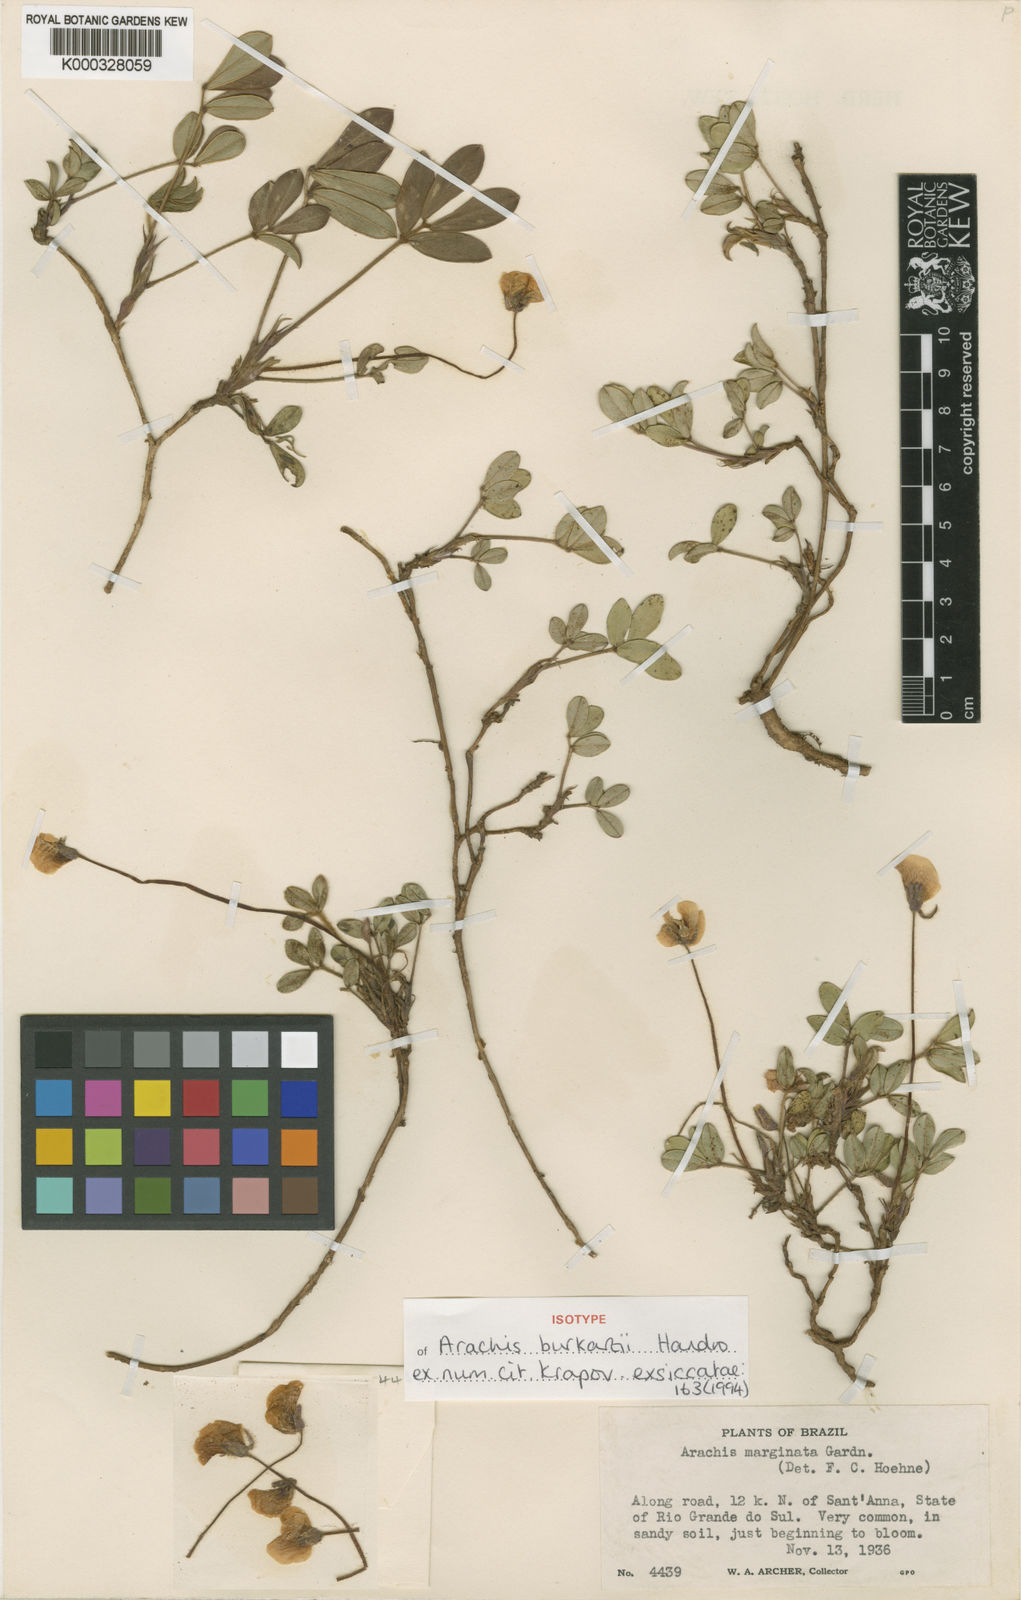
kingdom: Plantae
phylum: Tracheophyta
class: Magnoliopsida
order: Fabales
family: Fabaceae
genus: Arachis
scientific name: Arachis burkartii
